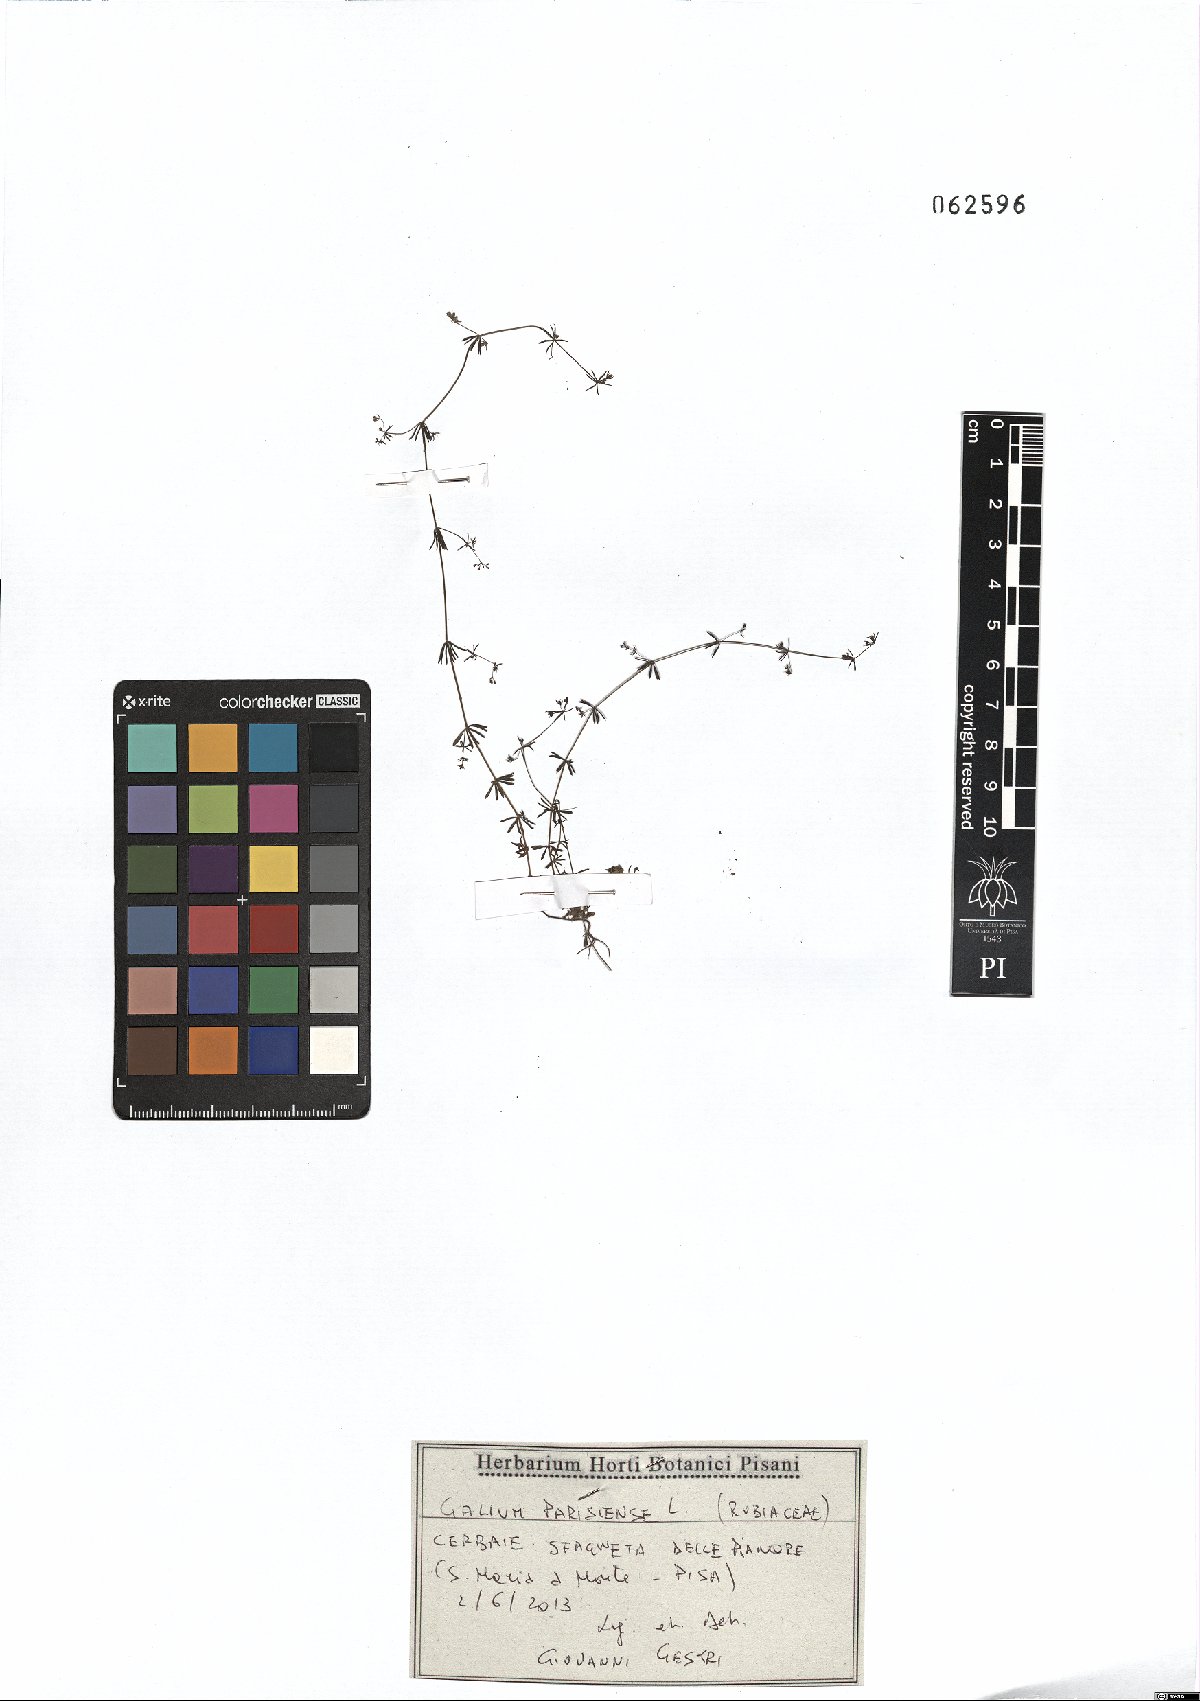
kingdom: Plantae
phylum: Tracheophyta
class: Magnoliopsida
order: Gentianales
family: Rubiaceae
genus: Galium
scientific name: Galium parisiense
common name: Wall bedstraw
